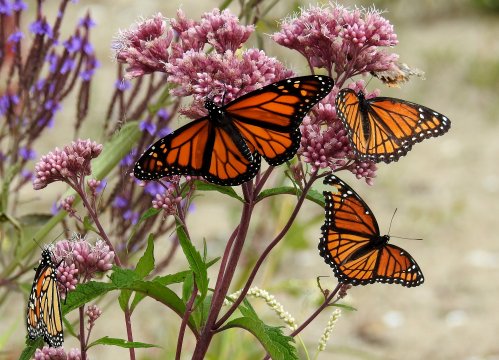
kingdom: Animalia
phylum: Arthropoda
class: Insecta
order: Lepidoptera
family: Nymphalidae
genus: Danaus
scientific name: Danaus plexippus
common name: Monarch
